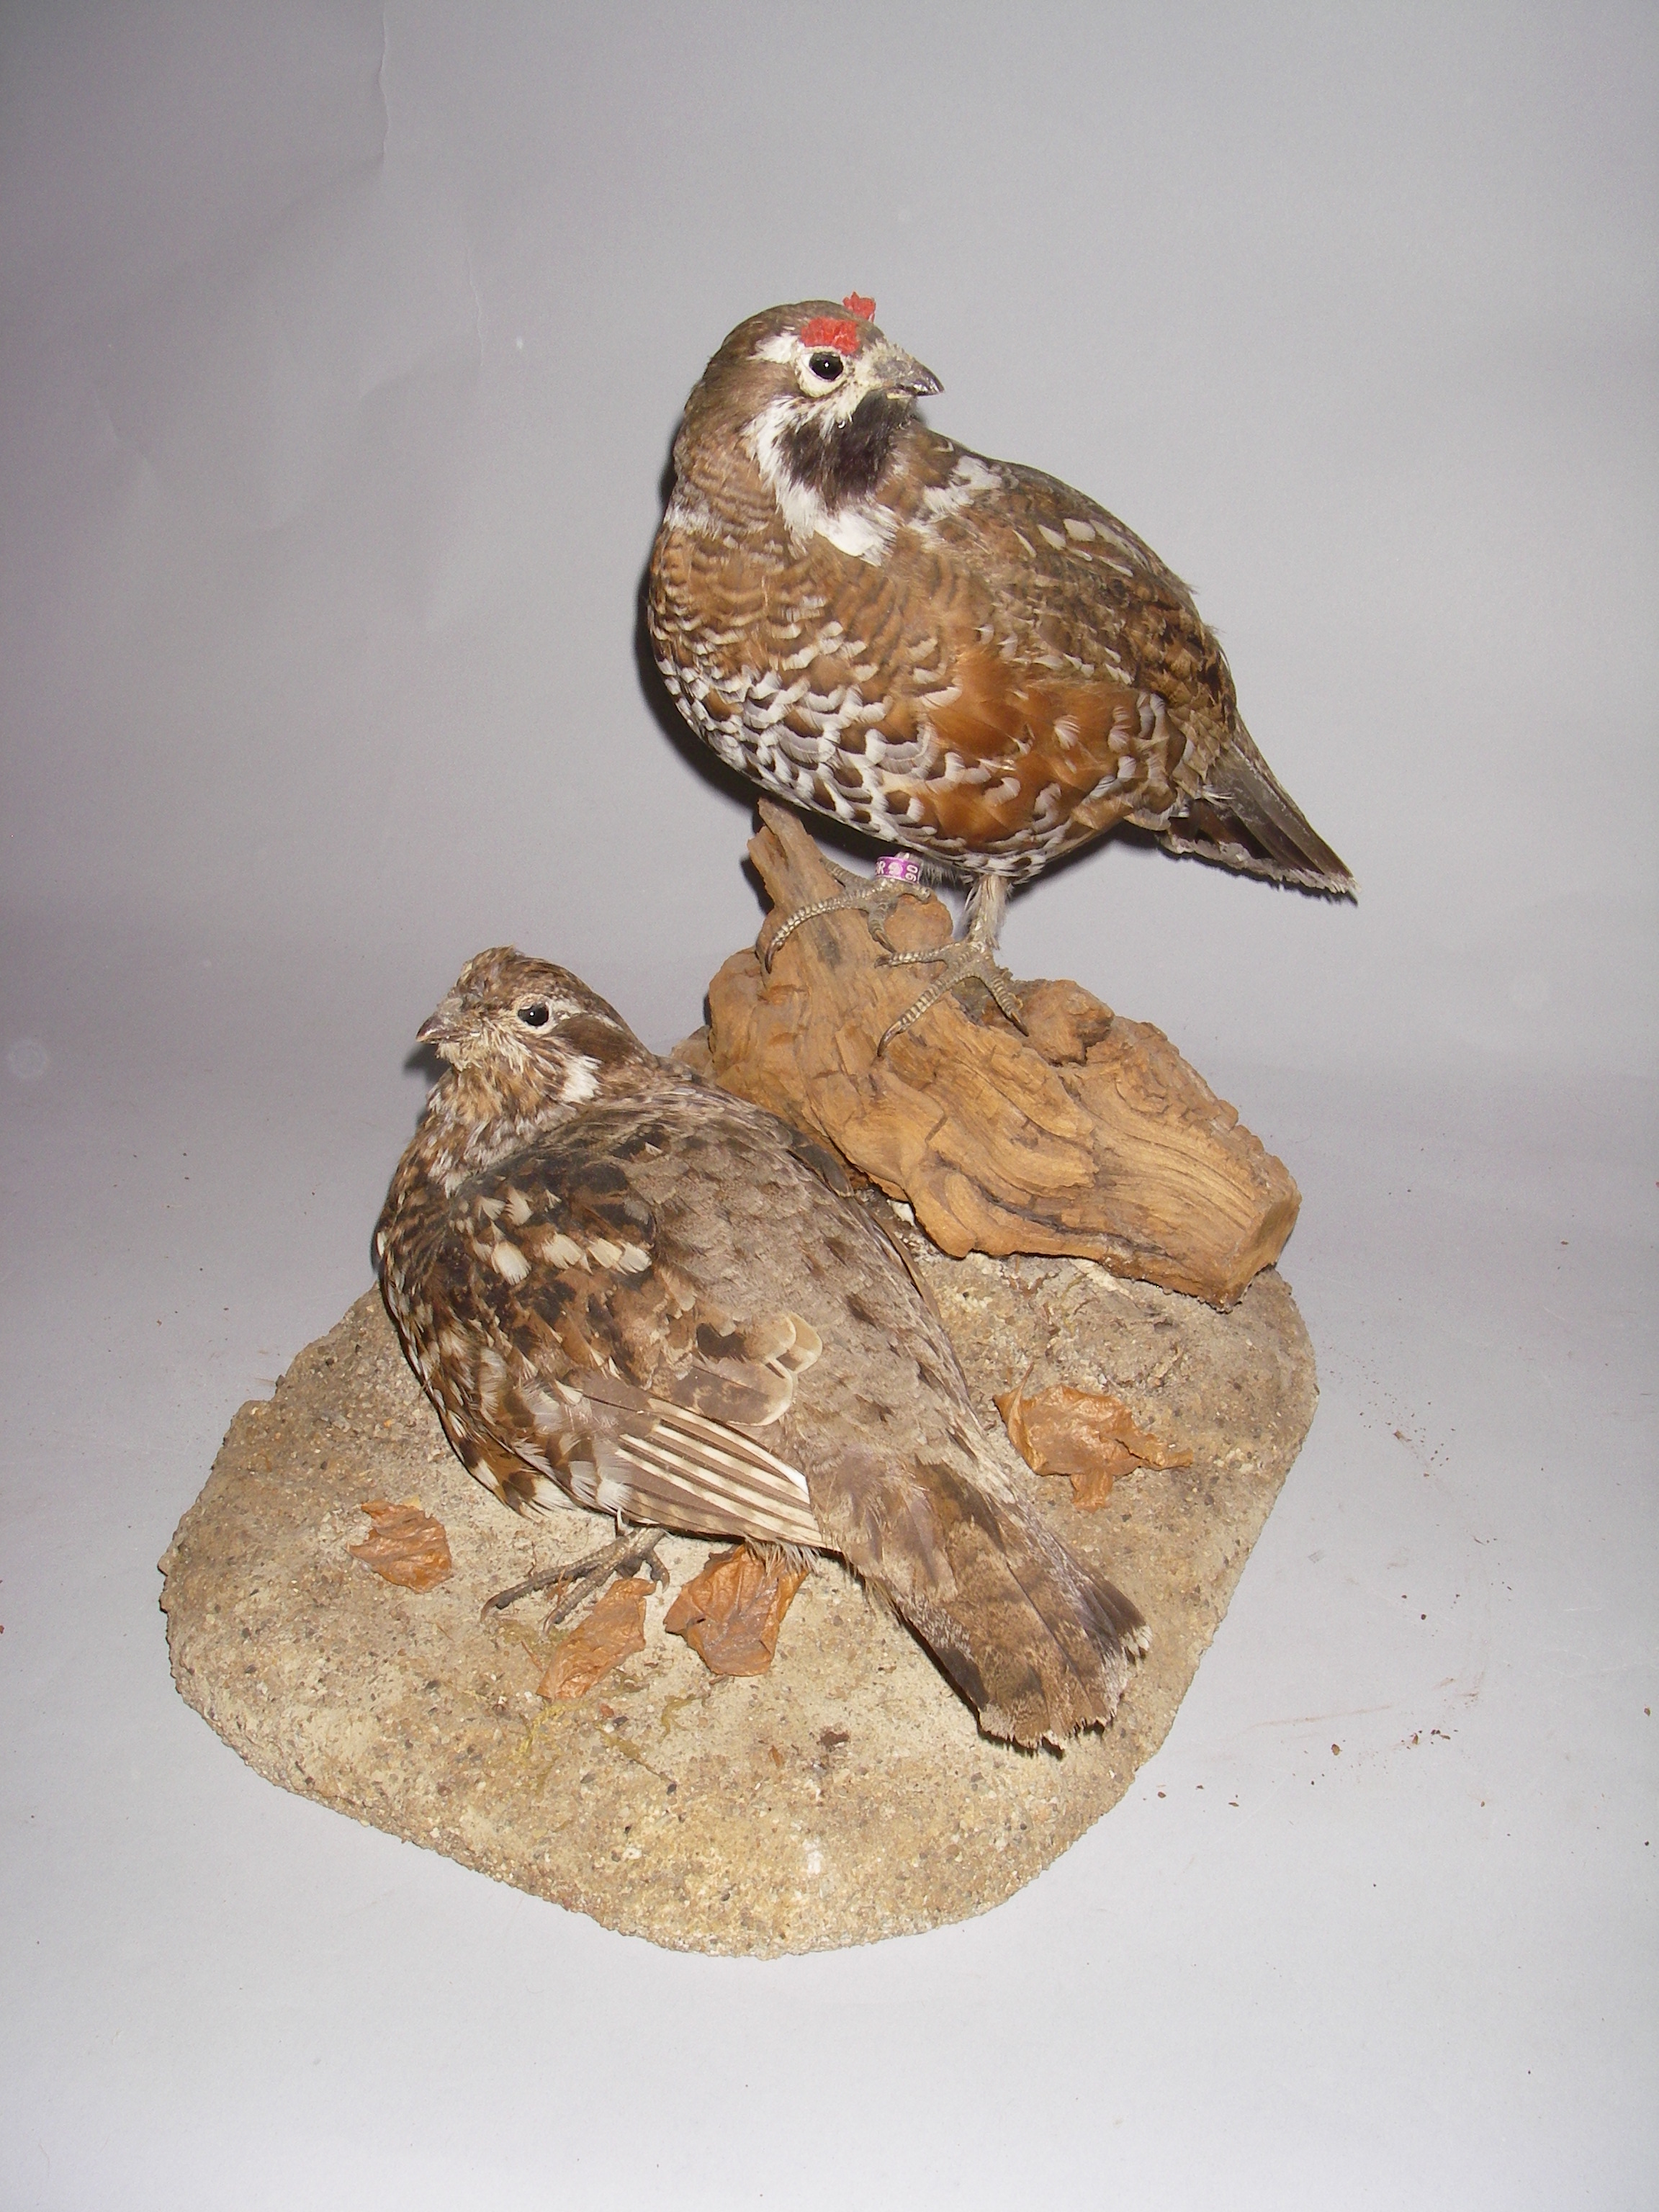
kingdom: Animalia
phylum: Chordata
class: Aves
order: Galliformes
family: Phasianidae
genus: Tetrastes
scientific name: Tetrastes bonasia
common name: Hazel grouse
